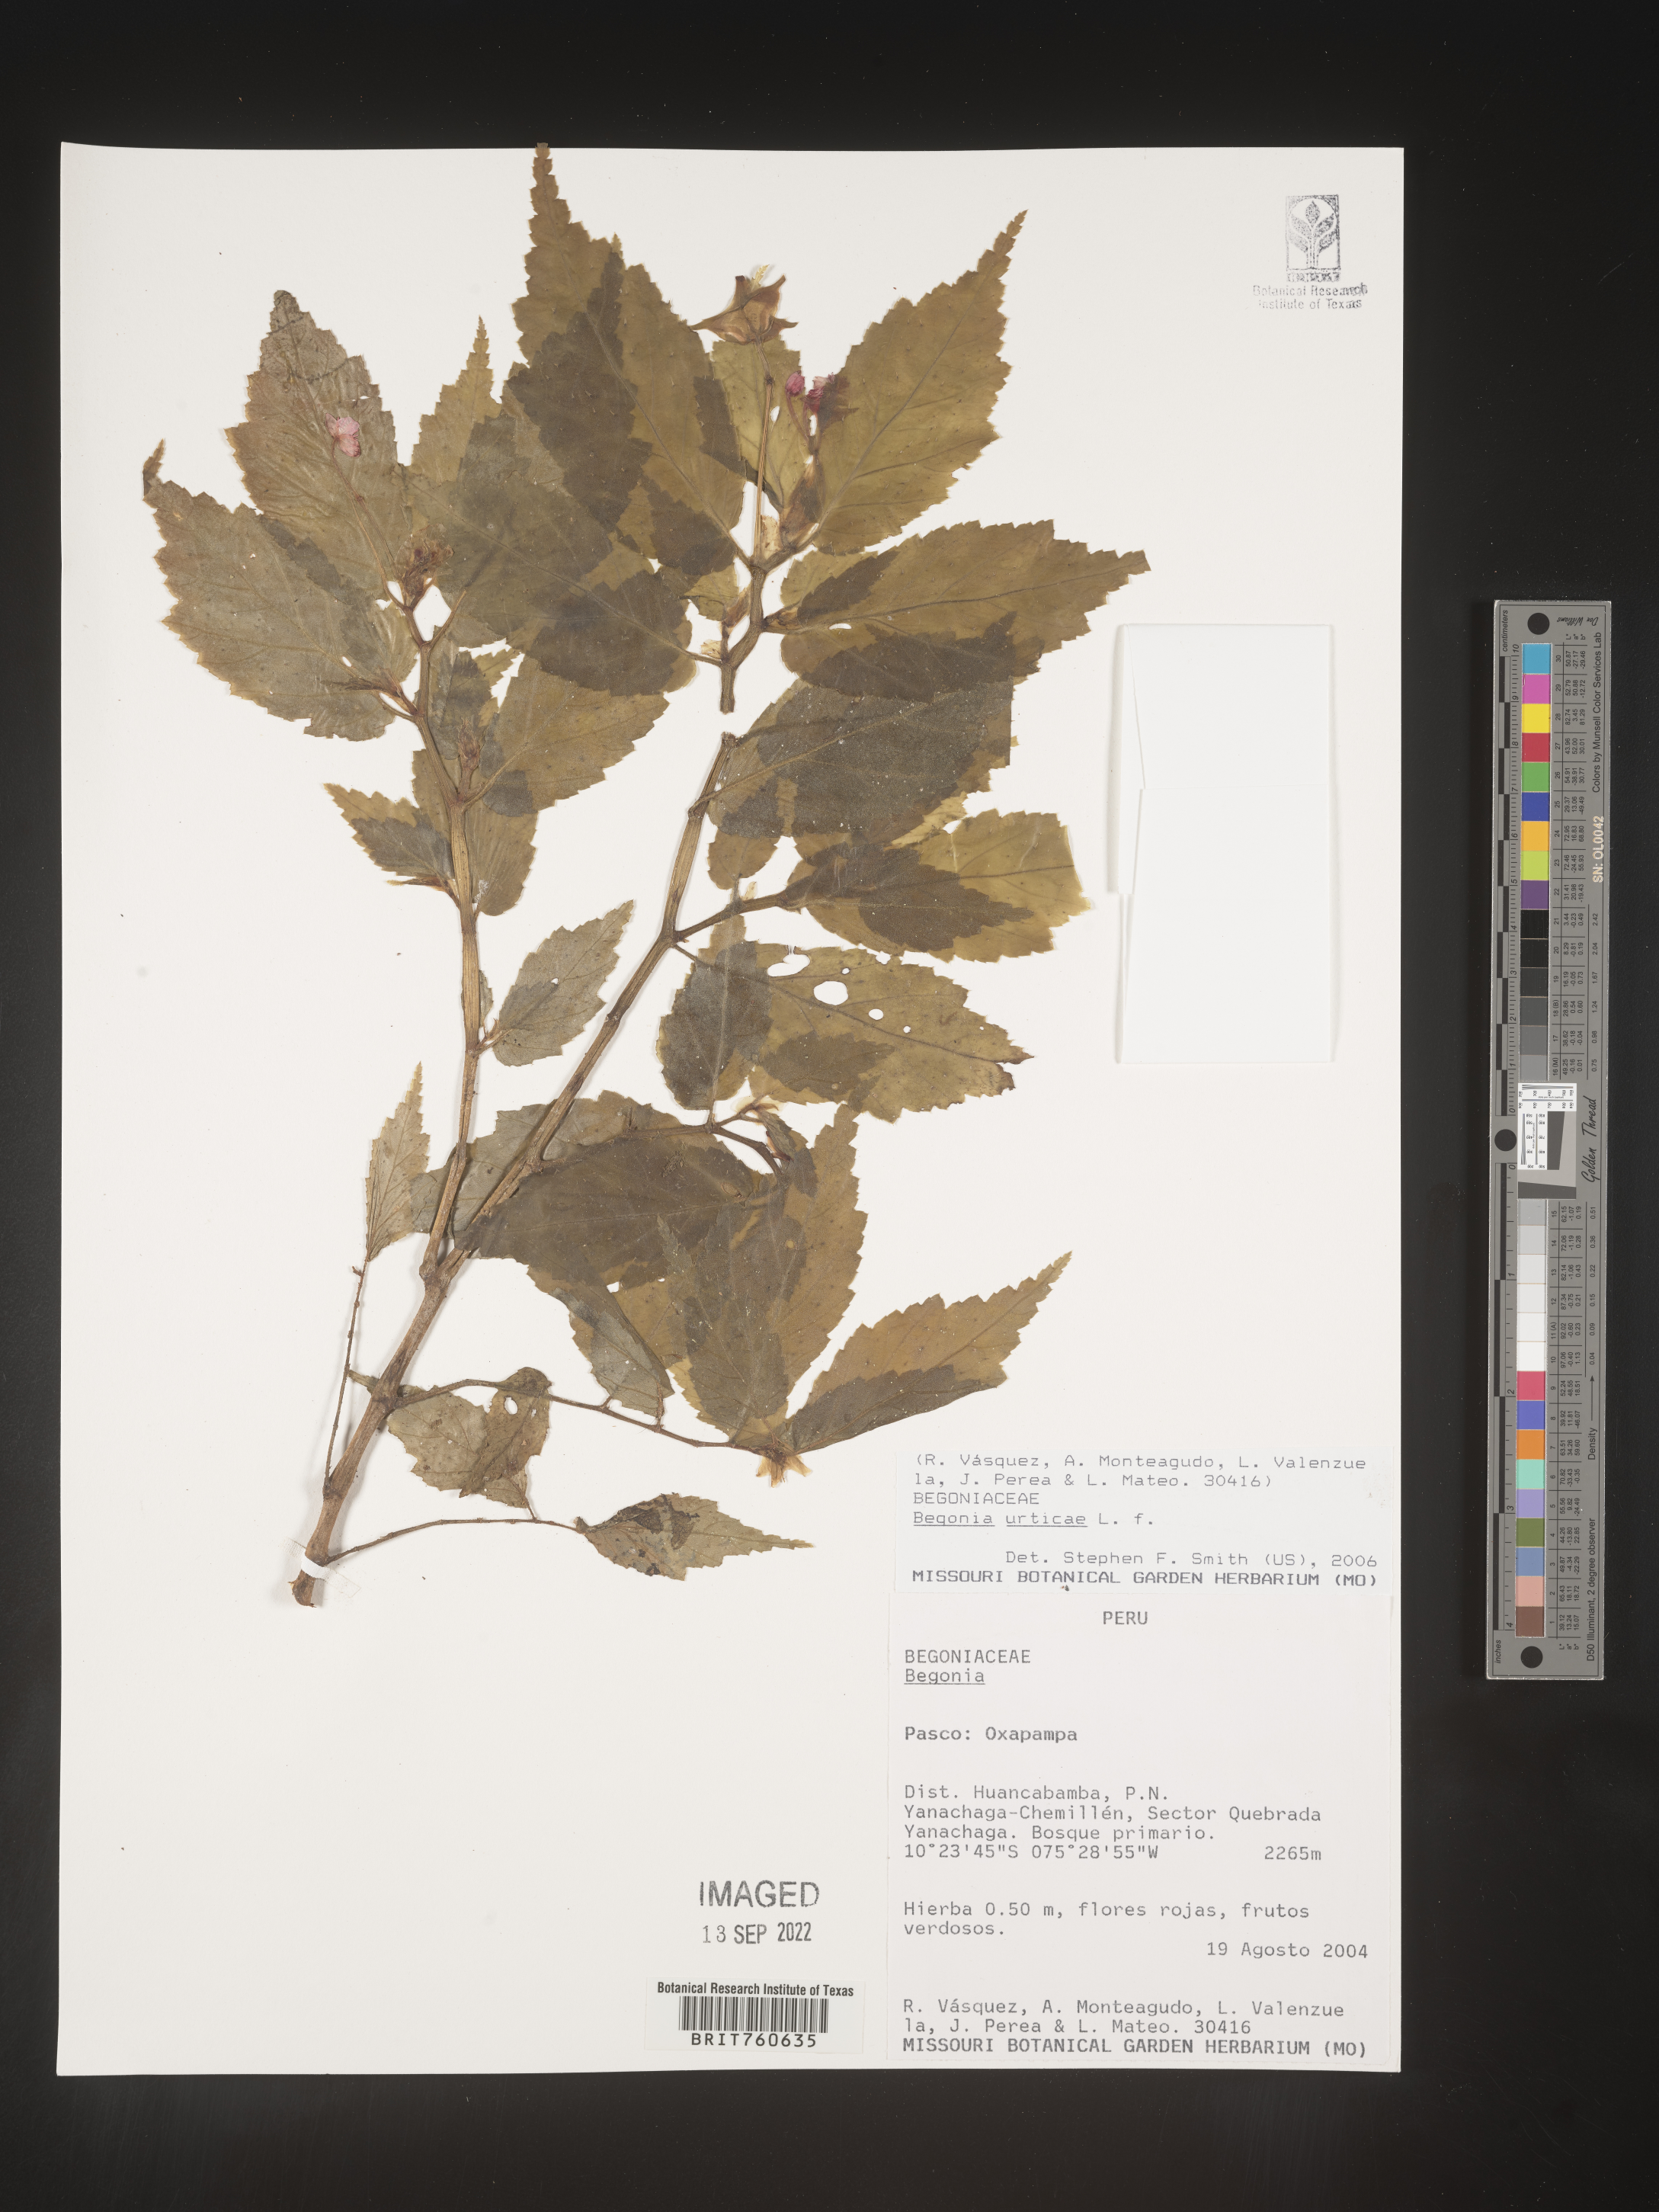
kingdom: Plantae
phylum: Tracheophyta
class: Magnoliopsida
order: Cucurbitales
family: Begoniaceae
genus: Begonia
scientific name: Begonia
